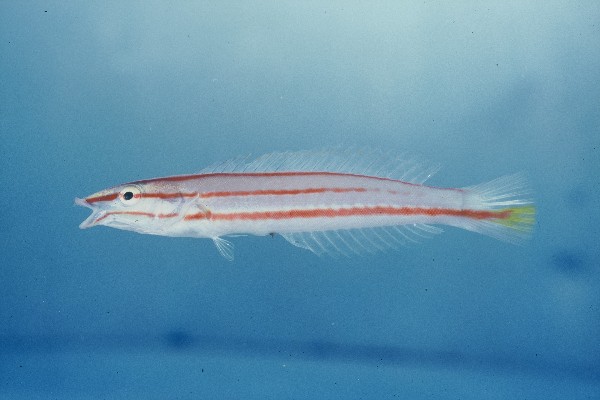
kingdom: Animalia
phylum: Chordata
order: Perciformes
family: Labridae
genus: Hologymnosus
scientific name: Hologymnosus doliatus
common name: Pastel ringwrasse
